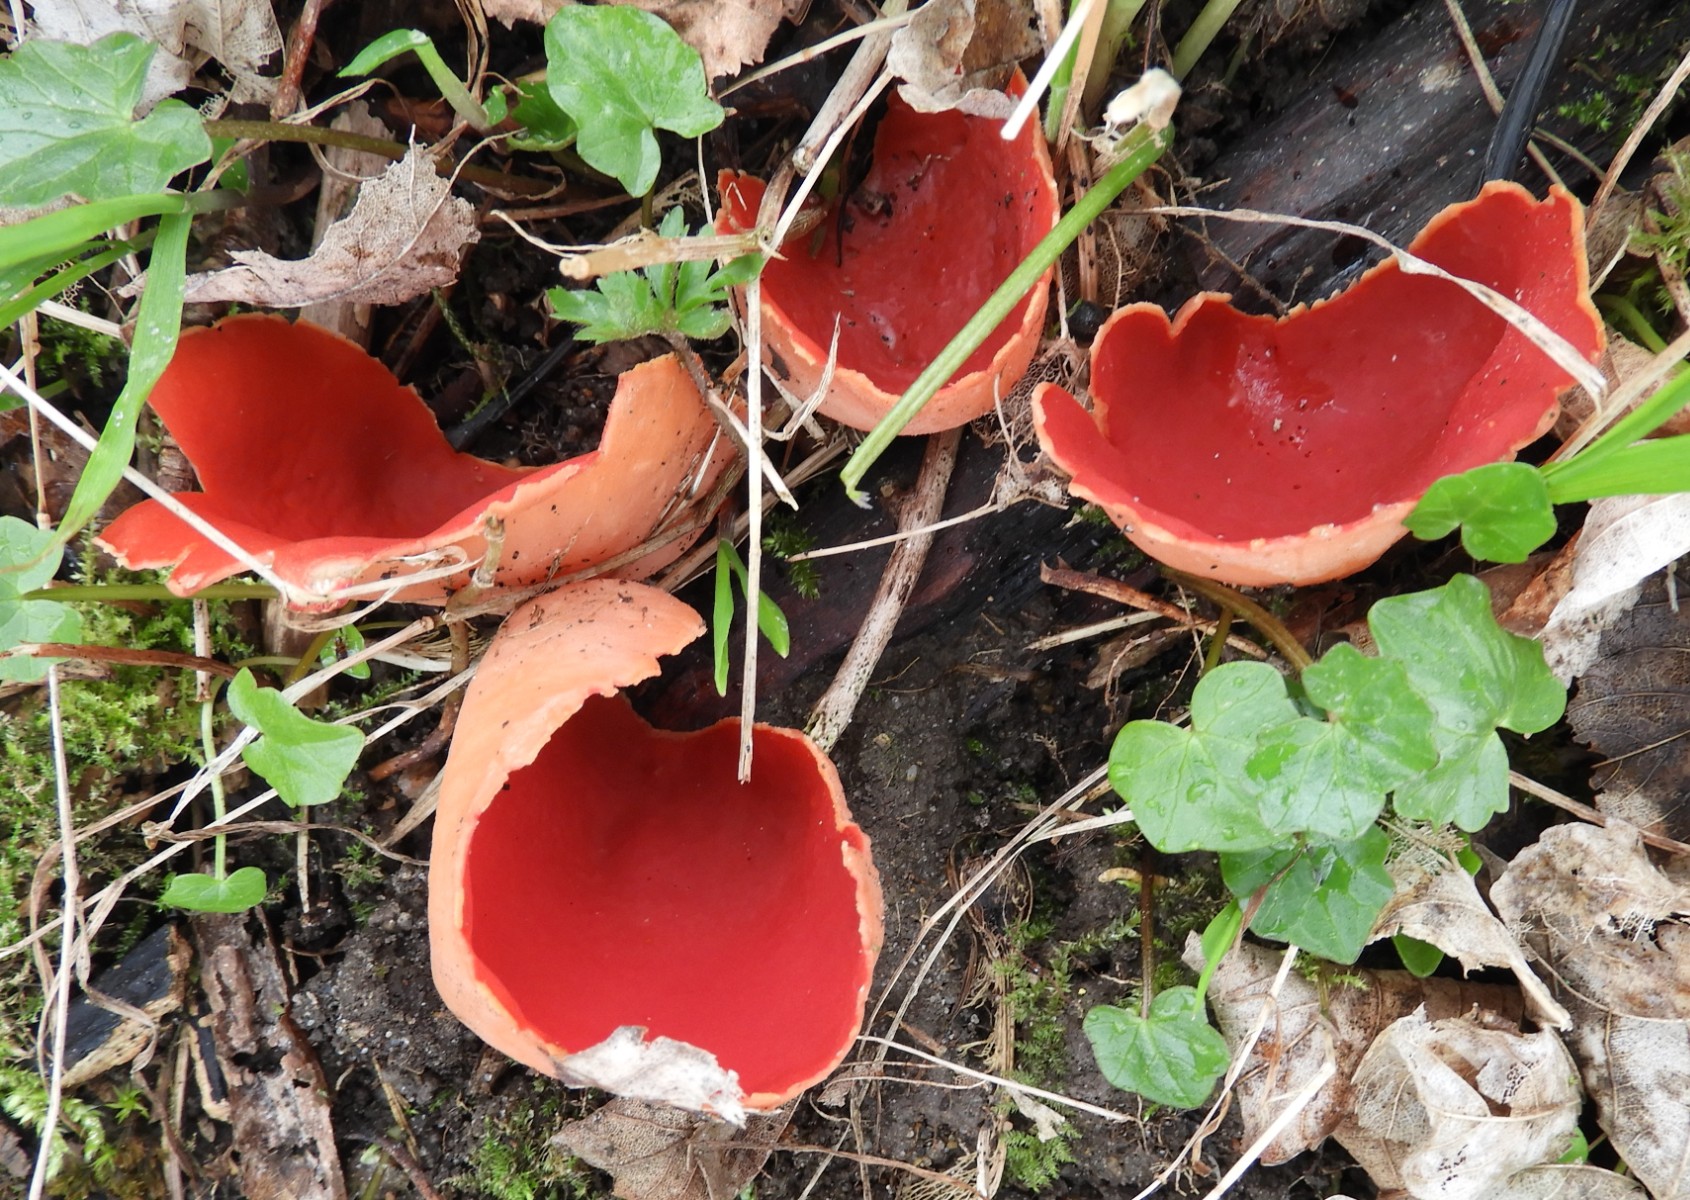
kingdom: Fungi
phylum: Ascomycota
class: Pezizomycetes
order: Pezizales
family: Sarcoscyphaceae
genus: Sarcoscypha
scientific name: Sarcoscypha austriaca
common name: krølhåret pragtbæger
